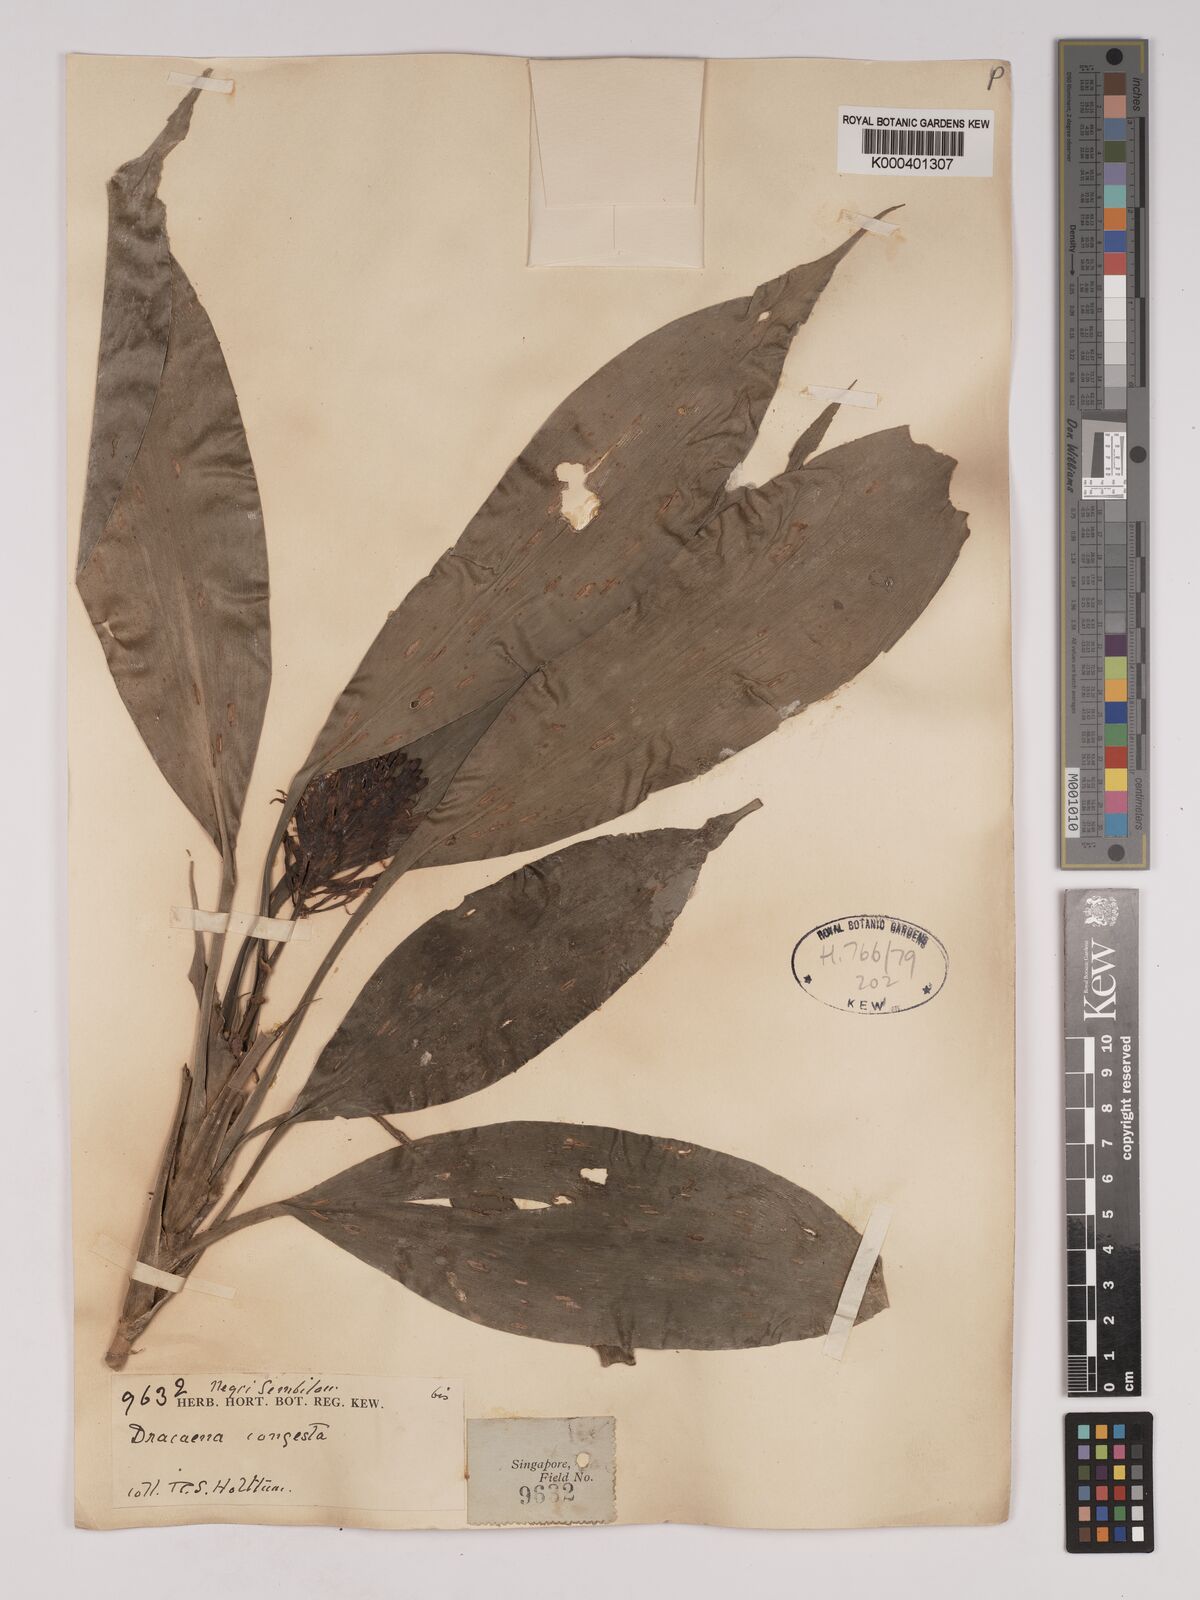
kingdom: Plantae
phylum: Tracheophyta
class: Liliopsida
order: Asparagales
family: Asparagaceae
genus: Dracaena
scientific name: Dracaena chiniana
